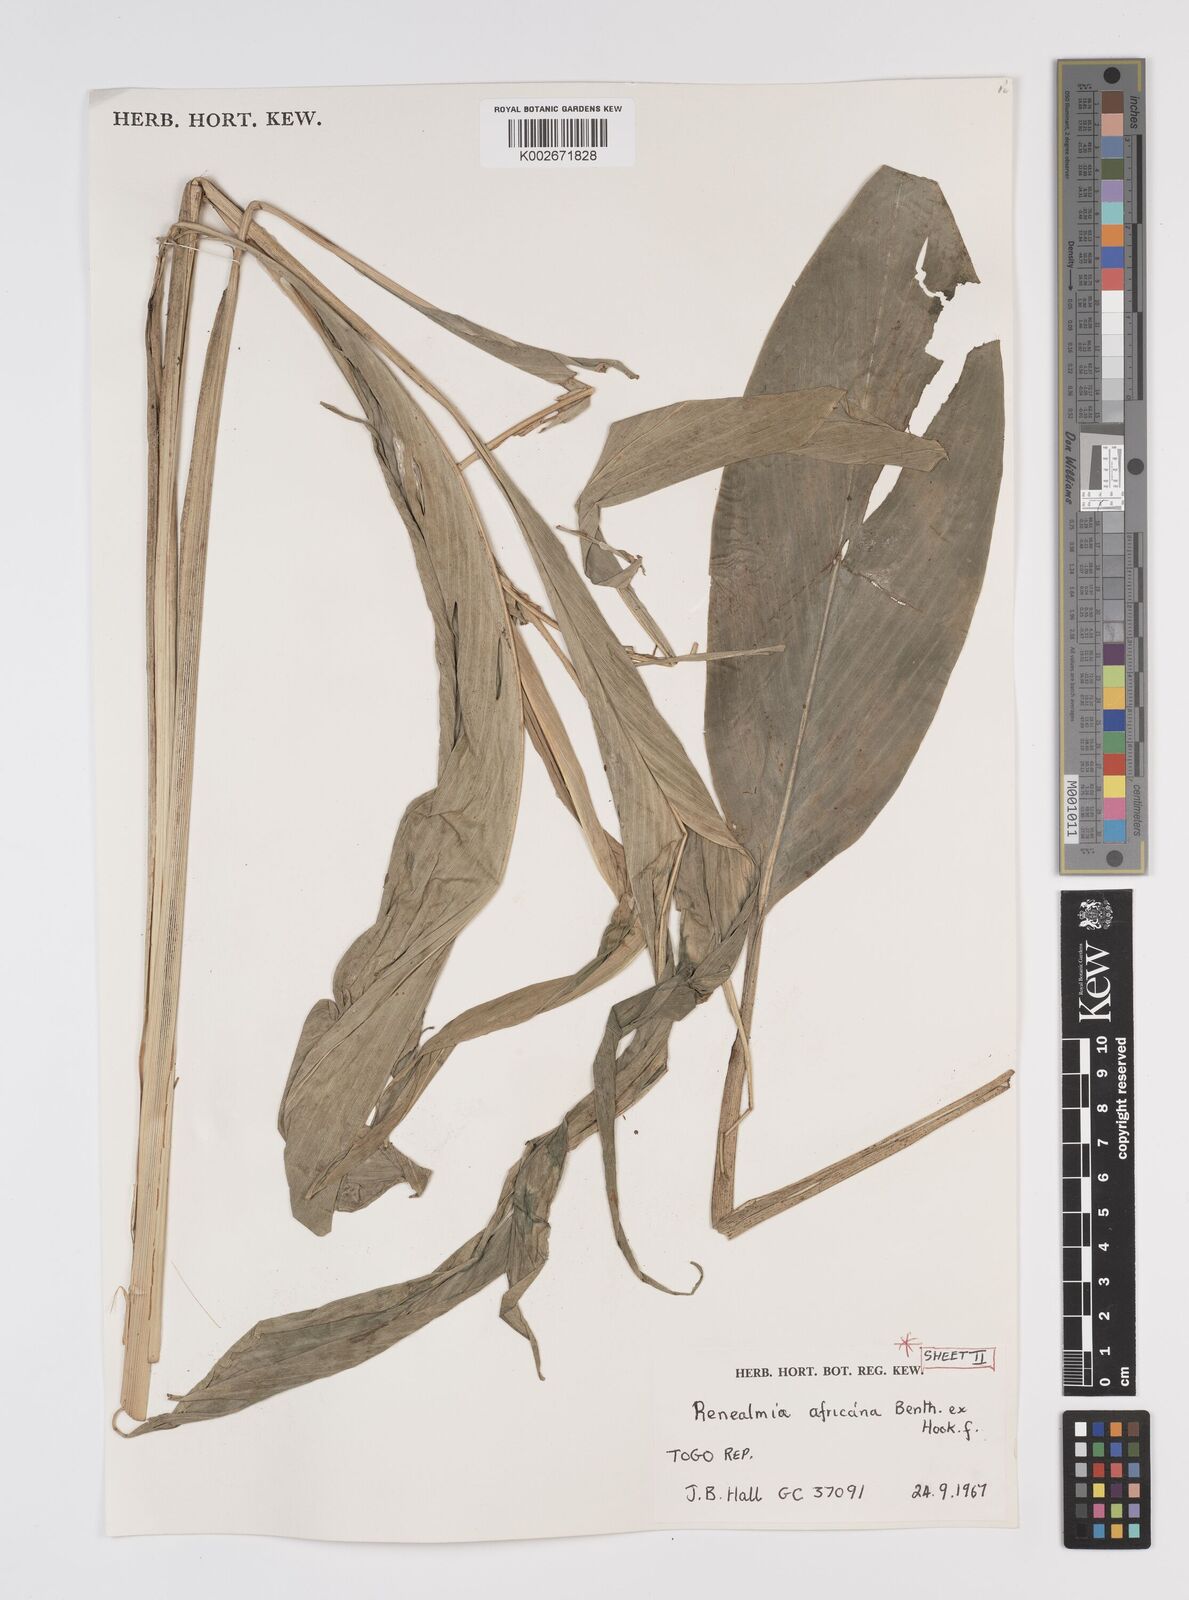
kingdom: Plantae
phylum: Tracheophyta
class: Liliopsida
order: Zingiberales
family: Zingiberaceae
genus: Renealmia
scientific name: Renealmia africana
